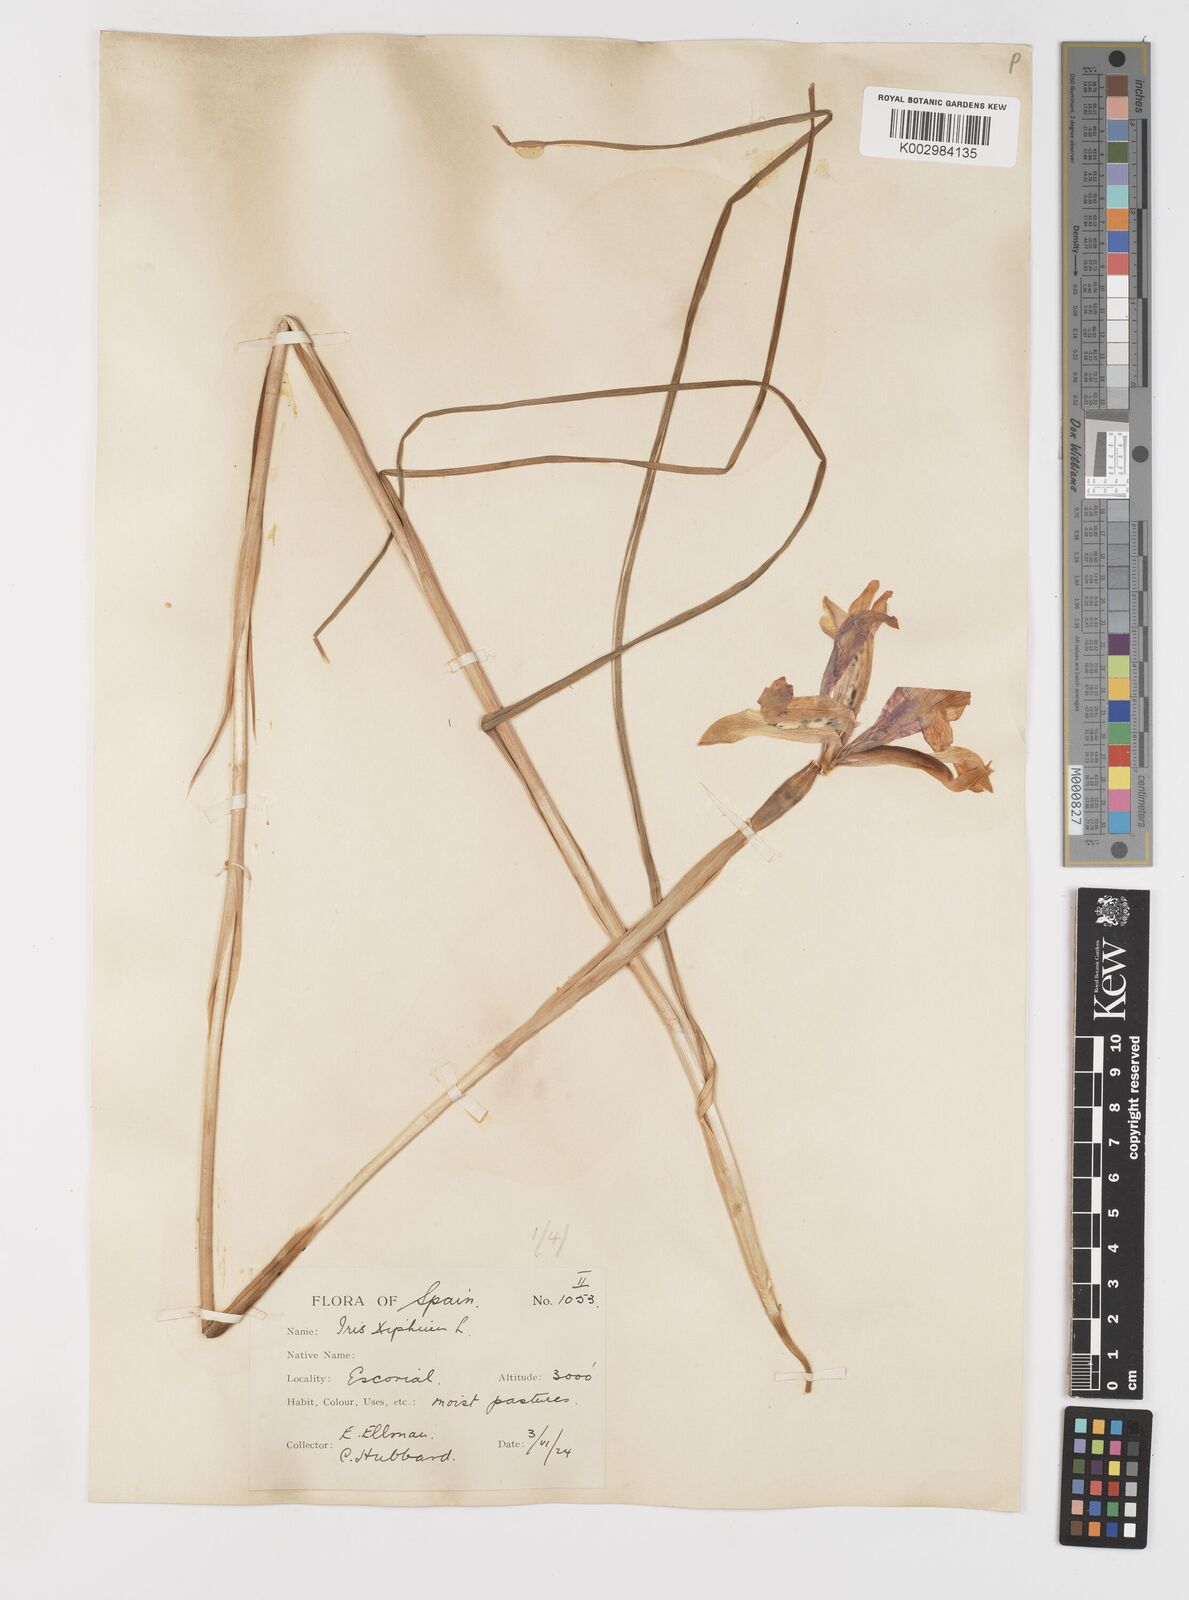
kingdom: Plantae
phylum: Tracheophyta
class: Liliopsida
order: Asparagales
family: Iridaceae
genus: Iris
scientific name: Iris xiphium
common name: Spanish iris
